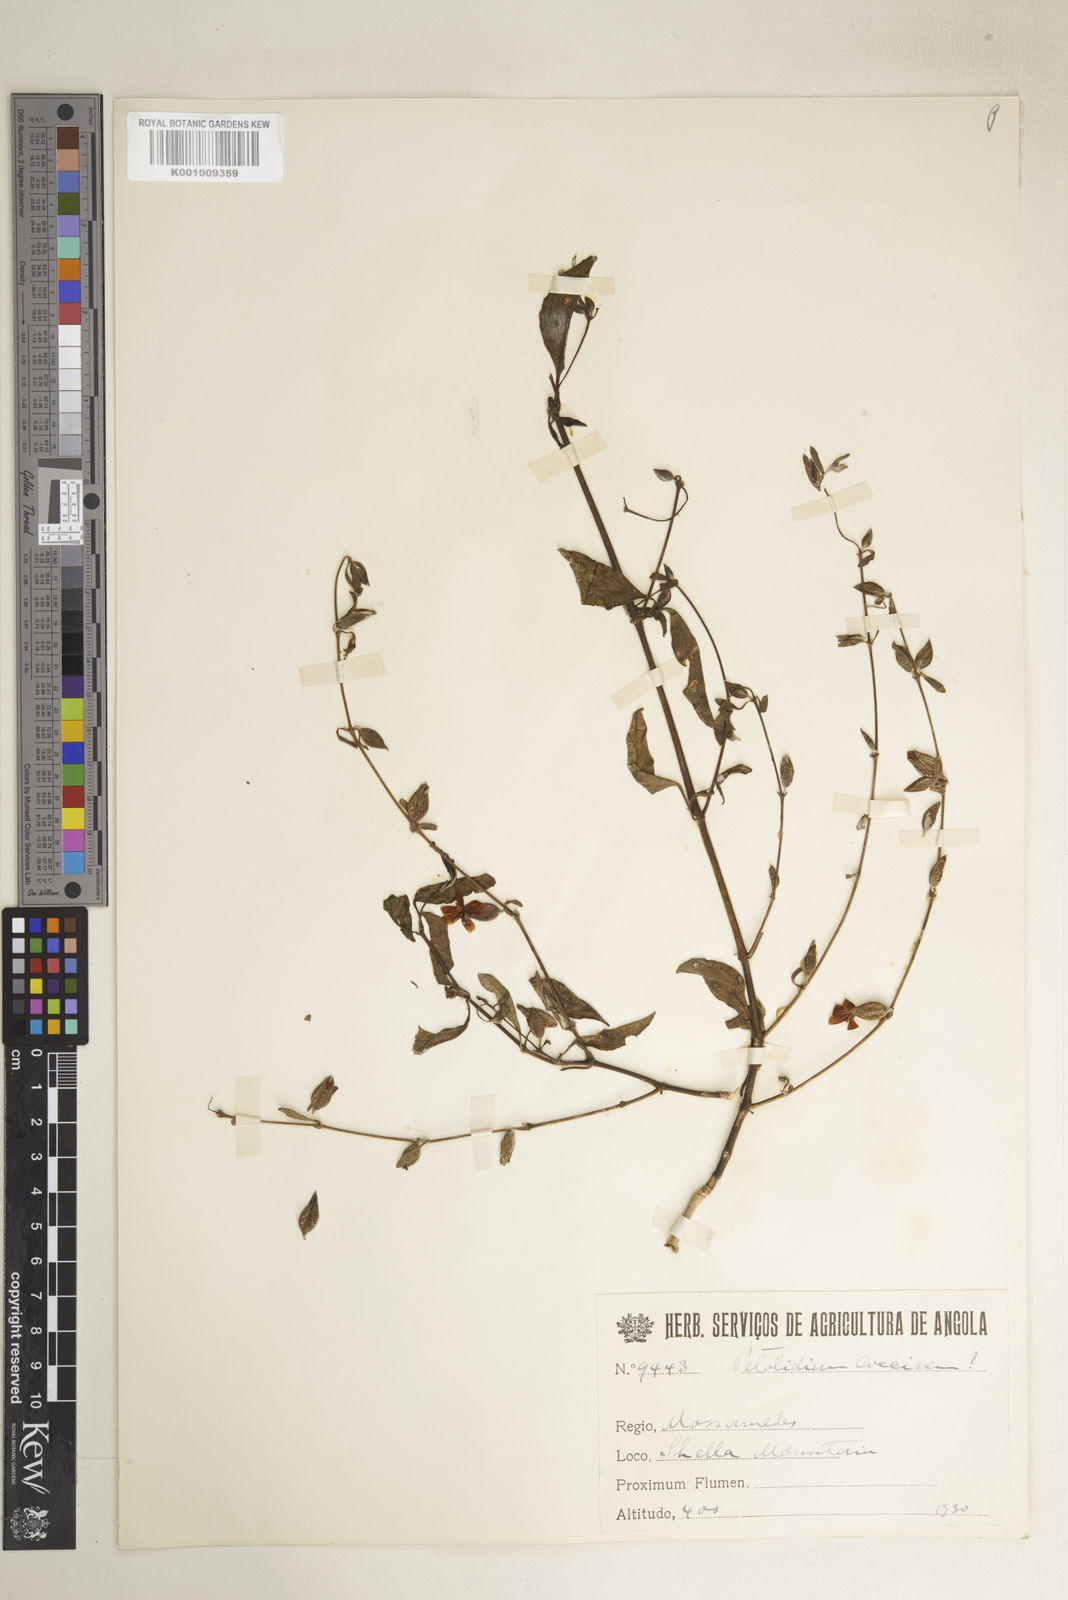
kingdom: Plantae
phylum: Tracheophyta
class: Magnoliopsida
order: Lamiales
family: Acanthaceae
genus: Petalidium
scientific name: Petalidium physaloides
